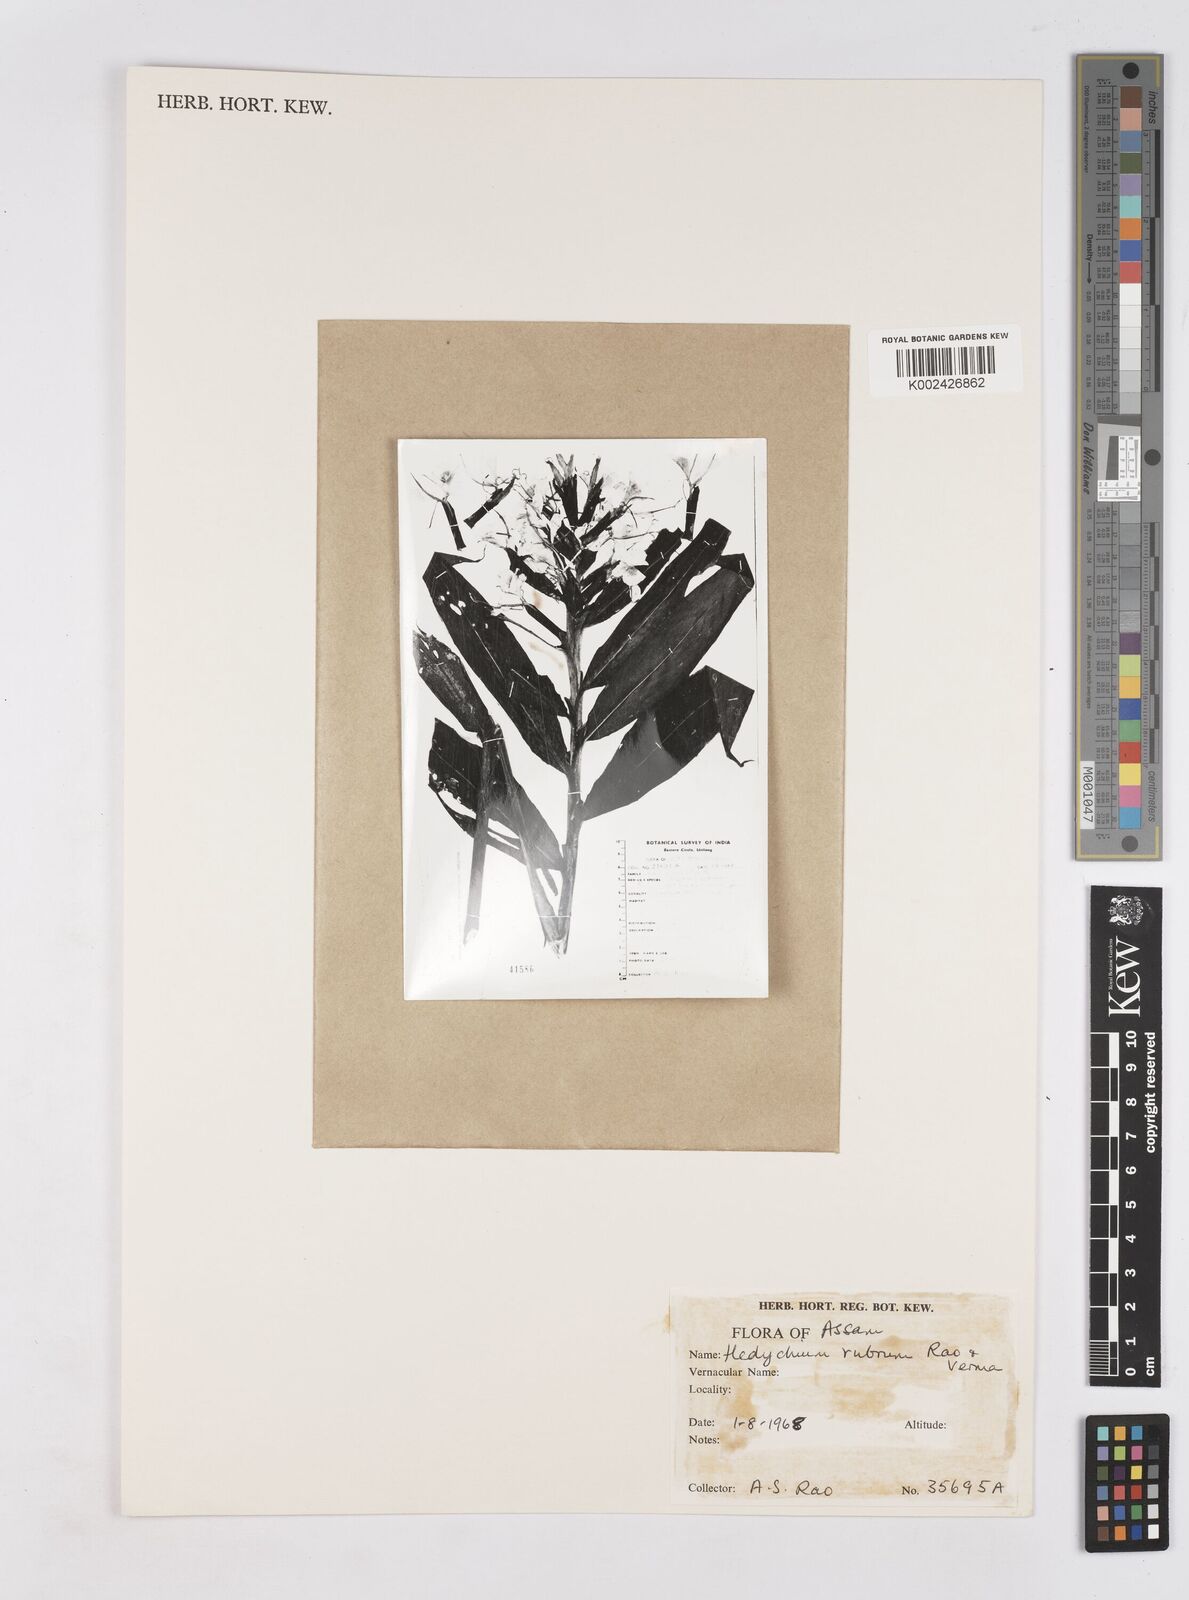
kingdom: Plantae
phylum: Tracheophyta
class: Liliopsida
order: Zingiberales
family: Zingiberaceae
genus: Hedychium
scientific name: Hedychium deceptum
